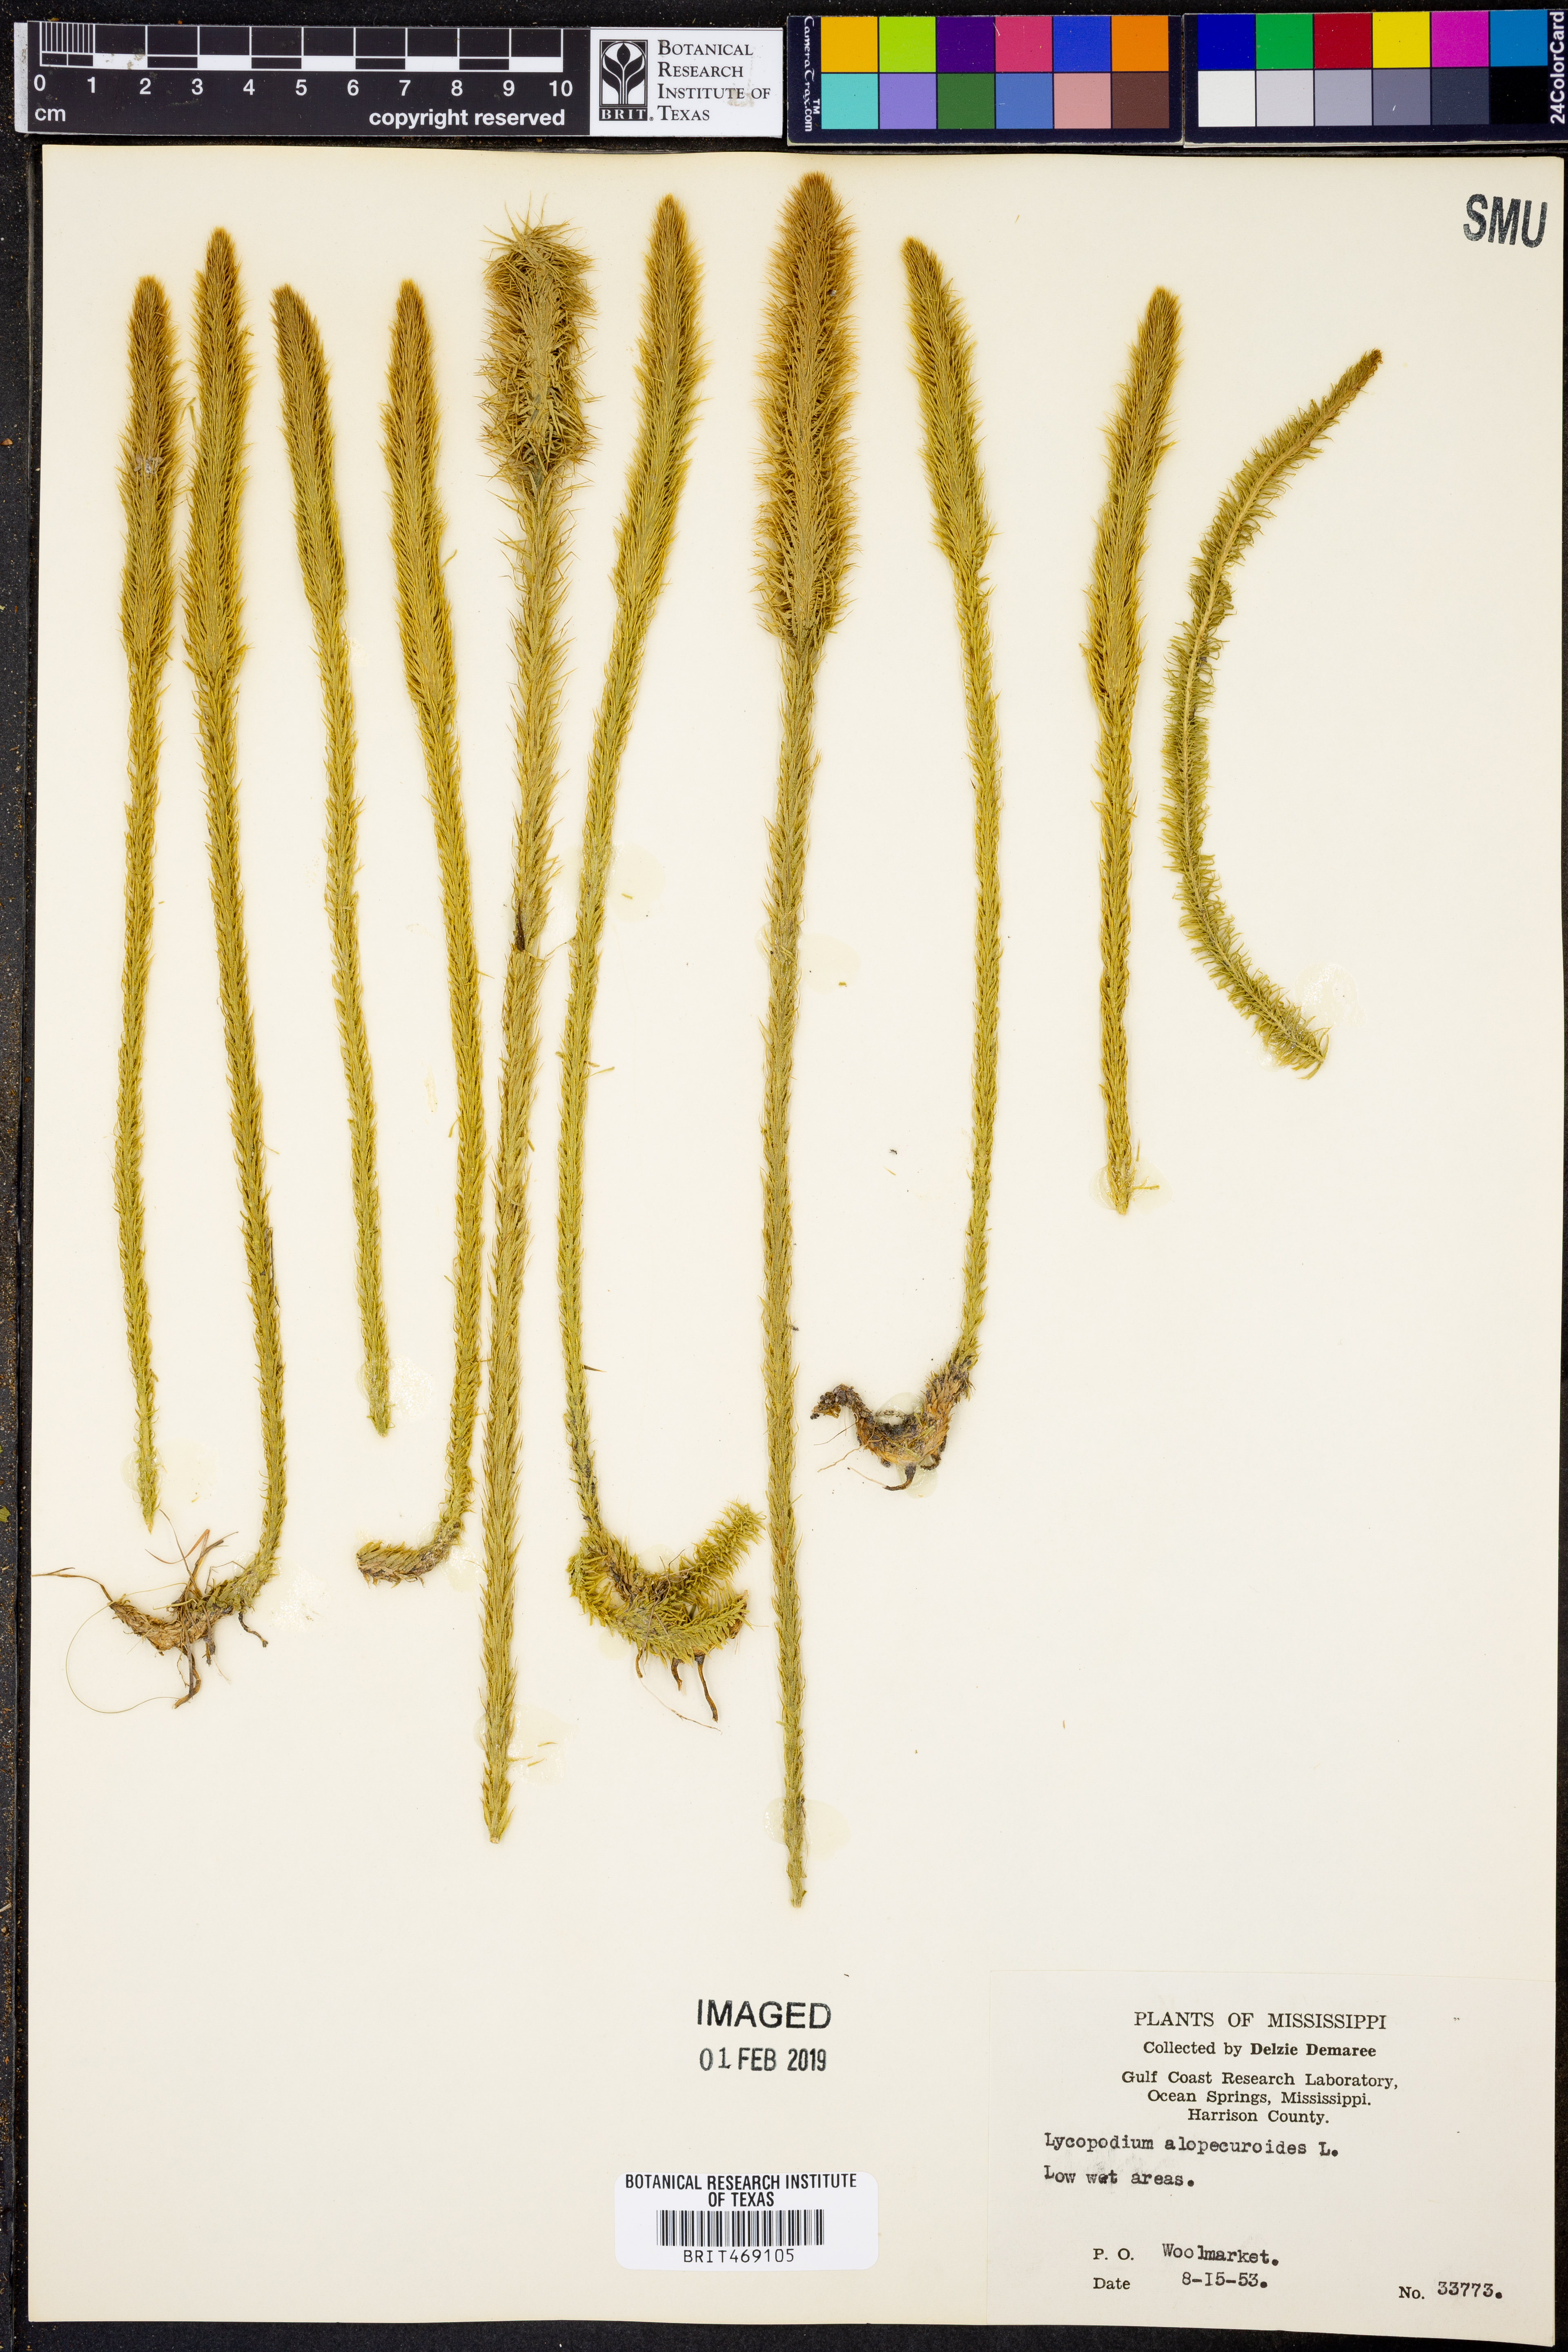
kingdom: Plantae
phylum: Tracheophyta
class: Lycopodiopsida
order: Lycopodiales
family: Lycopodiaceae
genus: Lycopodiella
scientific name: Lycopodiella alopecuroides
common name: Foxtail clubmoss
